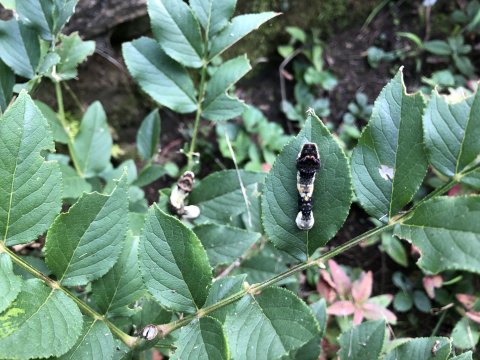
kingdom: Animalia
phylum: Arthropoda
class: Insecta
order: Lepidoptera
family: Papilionidae
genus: Papilio
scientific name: Papilio cresphontes
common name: Eastern Giant Swallowtail
